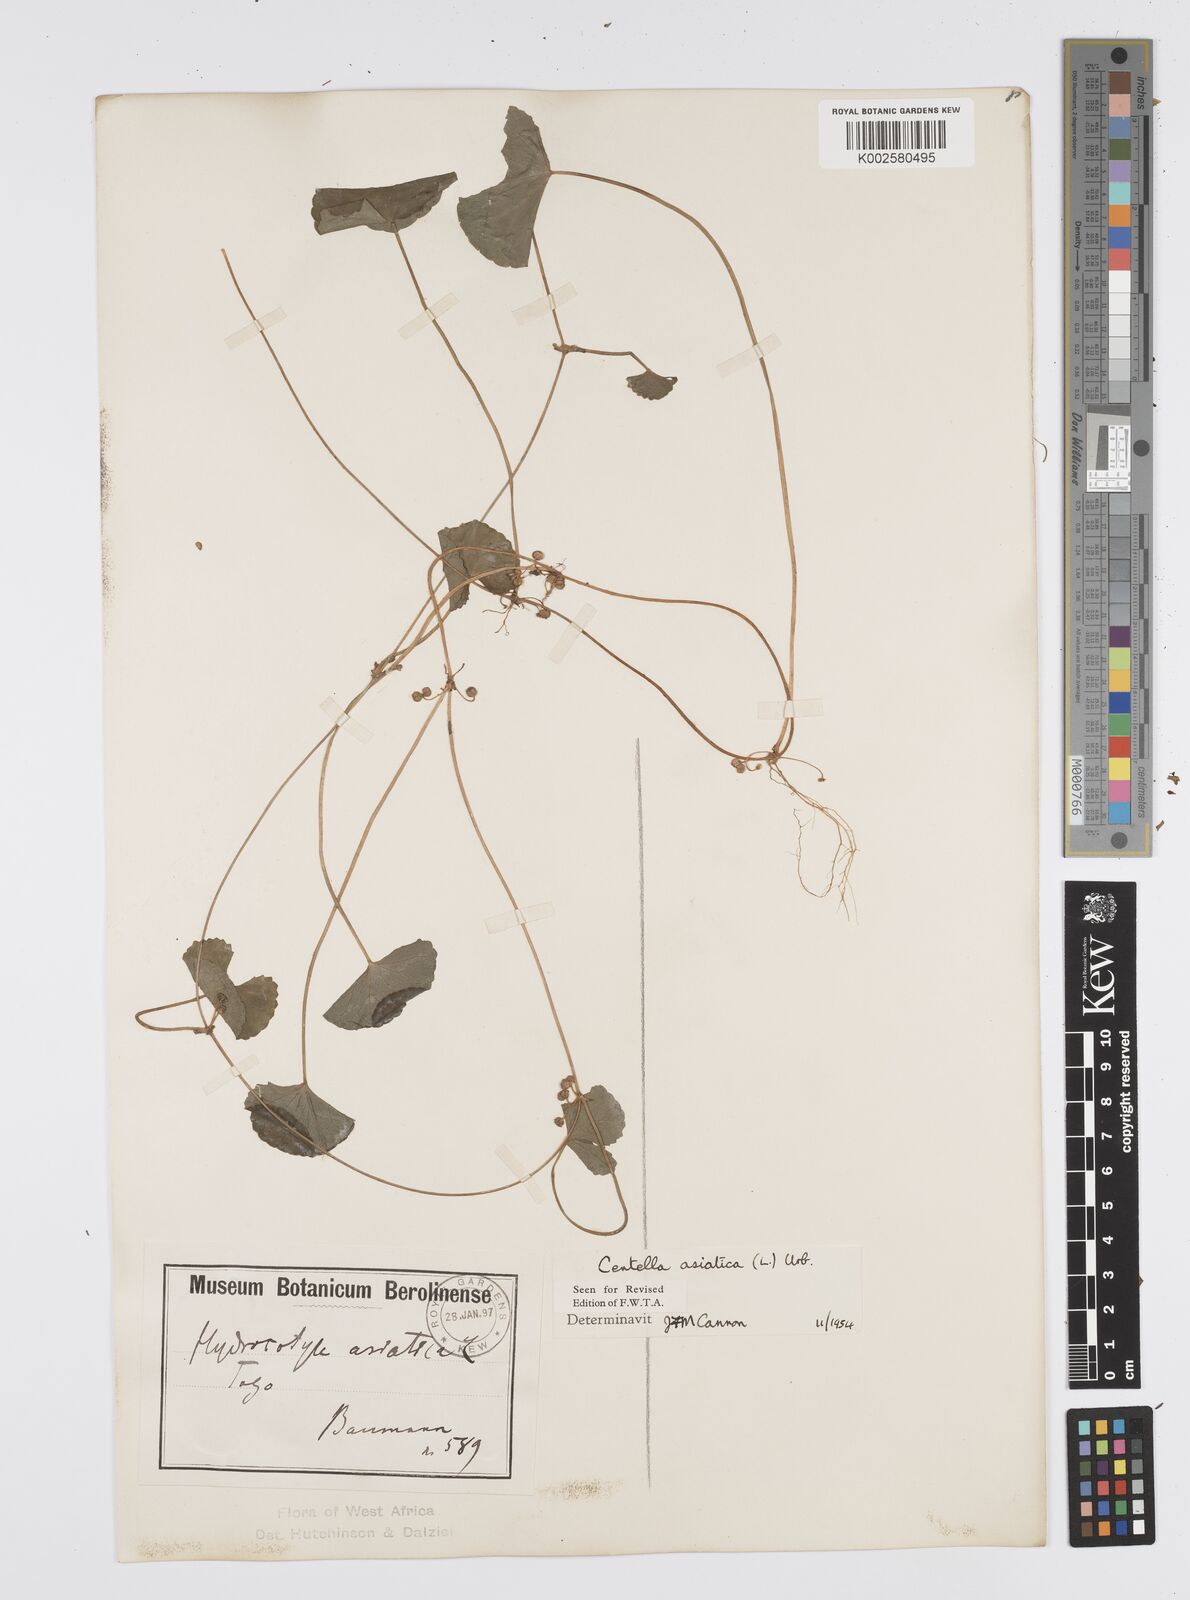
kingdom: Plantae
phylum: Tracheophyta
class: Magnoliopsida
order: Apiales
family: Apiaceae
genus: Centella
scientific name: Centella asiatica
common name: Spadeleaf
